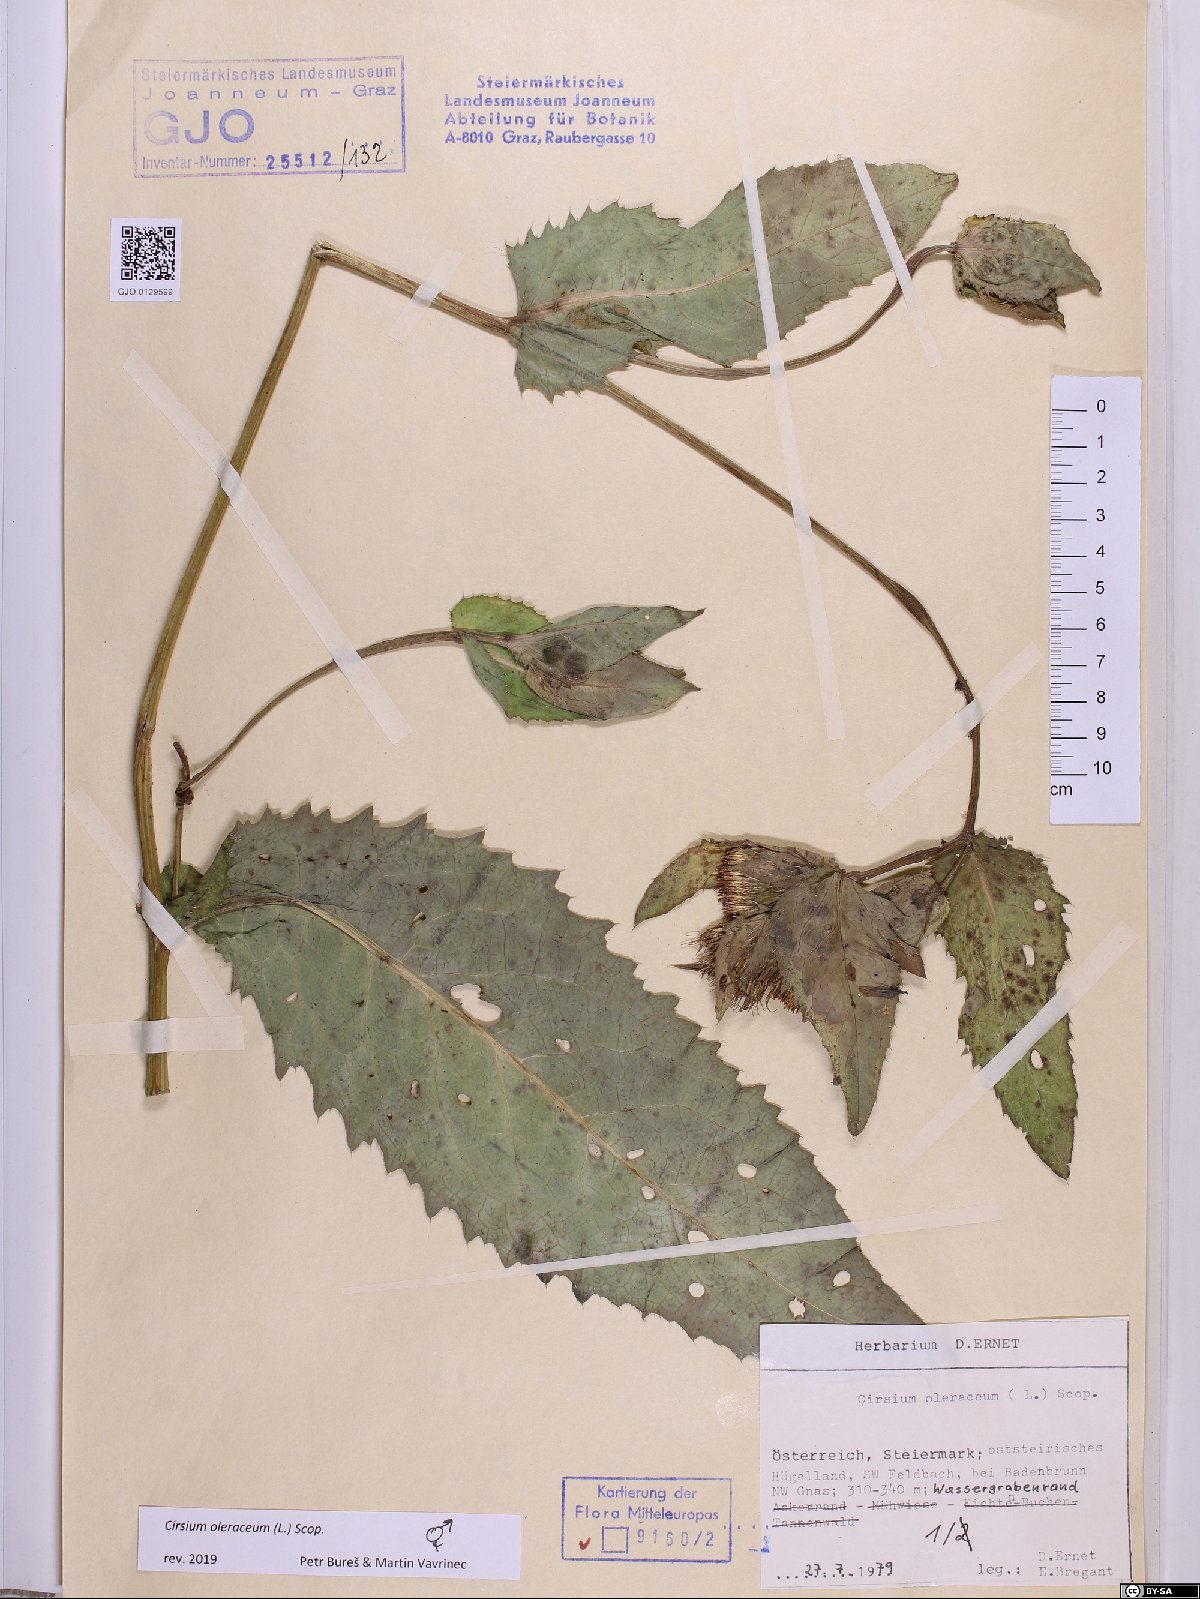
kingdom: Plantae
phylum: Tracheophyta
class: Magnoliopsida
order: Asterales
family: Asteraceae
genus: Cirsium
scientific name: Cirsium oleraceum
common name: Cabbage thistle
